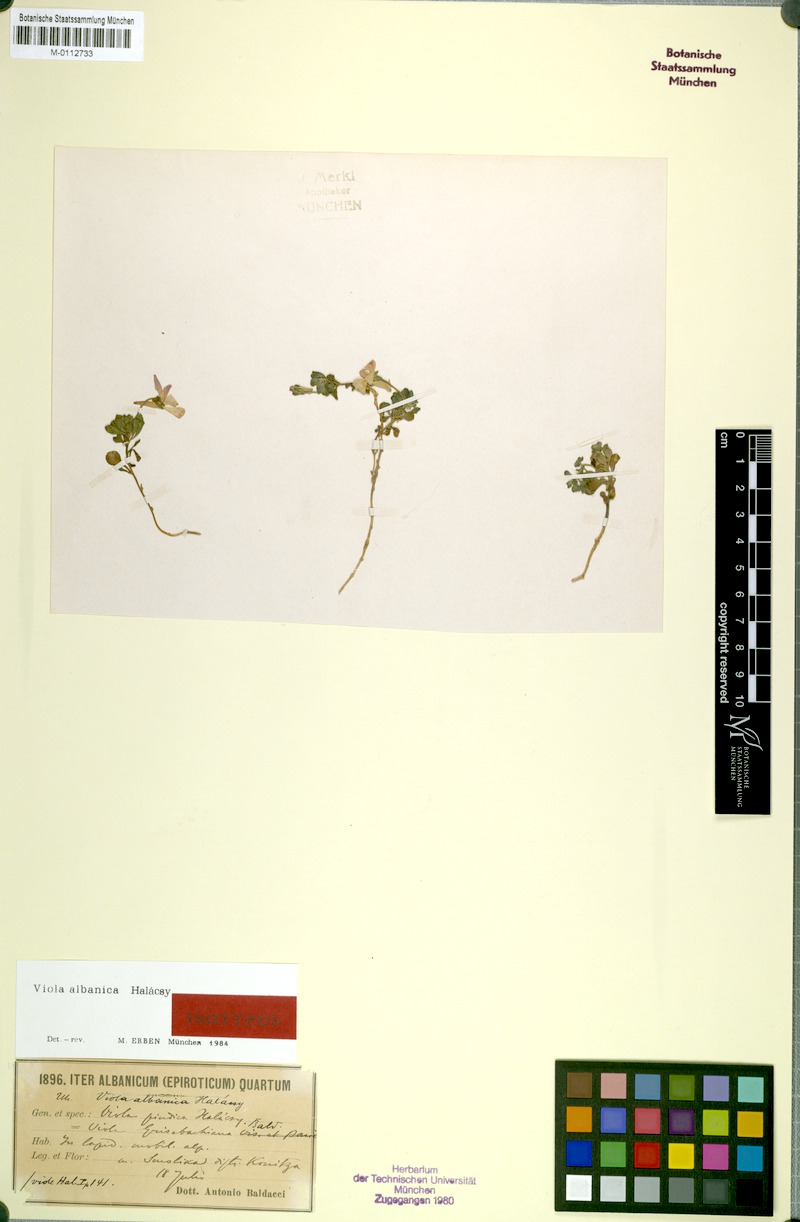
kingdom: Plantae
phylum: Tracheophyta
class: Magnoliopsida
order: Malpighiales
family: Violaceae
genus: Viola
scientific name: Viola albanica
